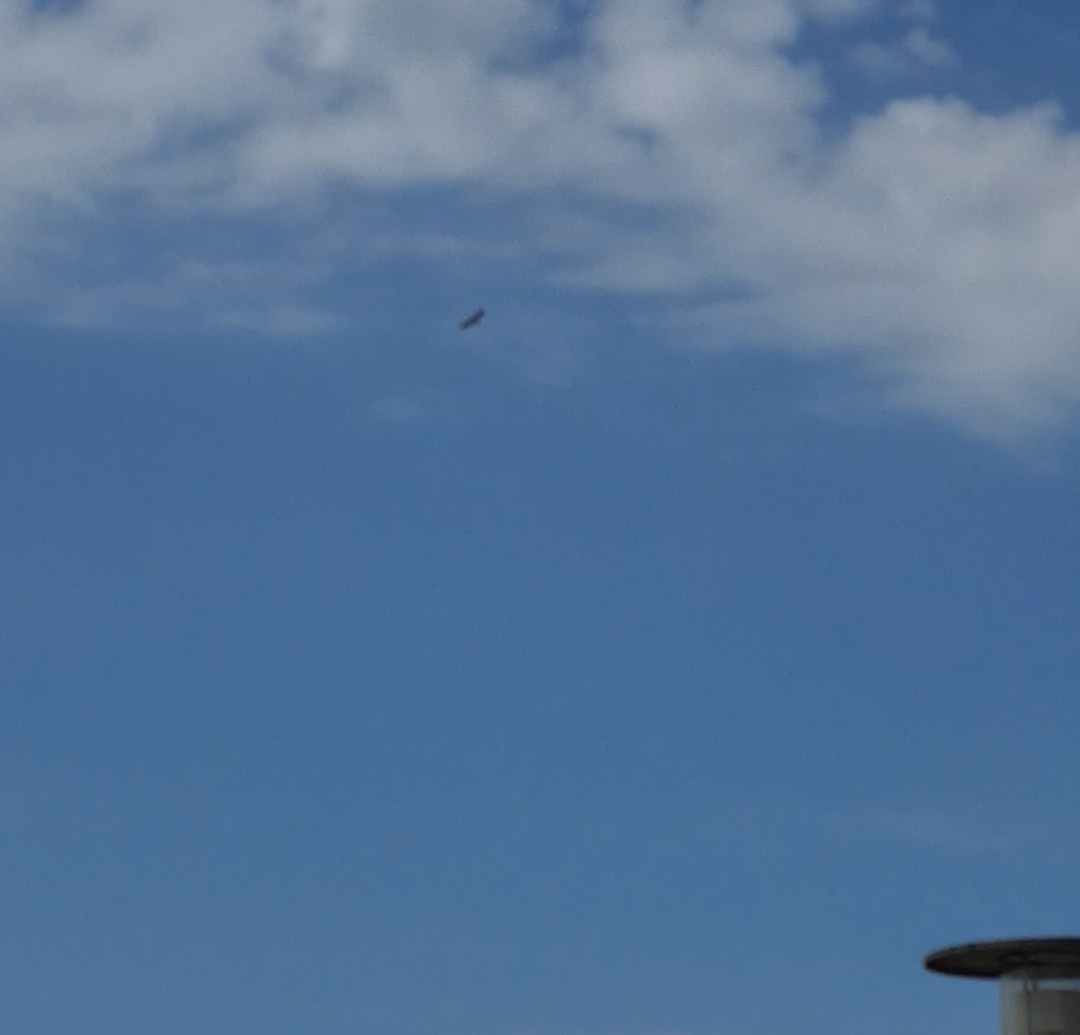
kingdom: Animalia
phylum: Chordata
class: Aves
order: Accipitriformes
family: Accipitridae
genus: Haliaeetus
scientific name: Haliaeetus albicilla
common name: Havørn
